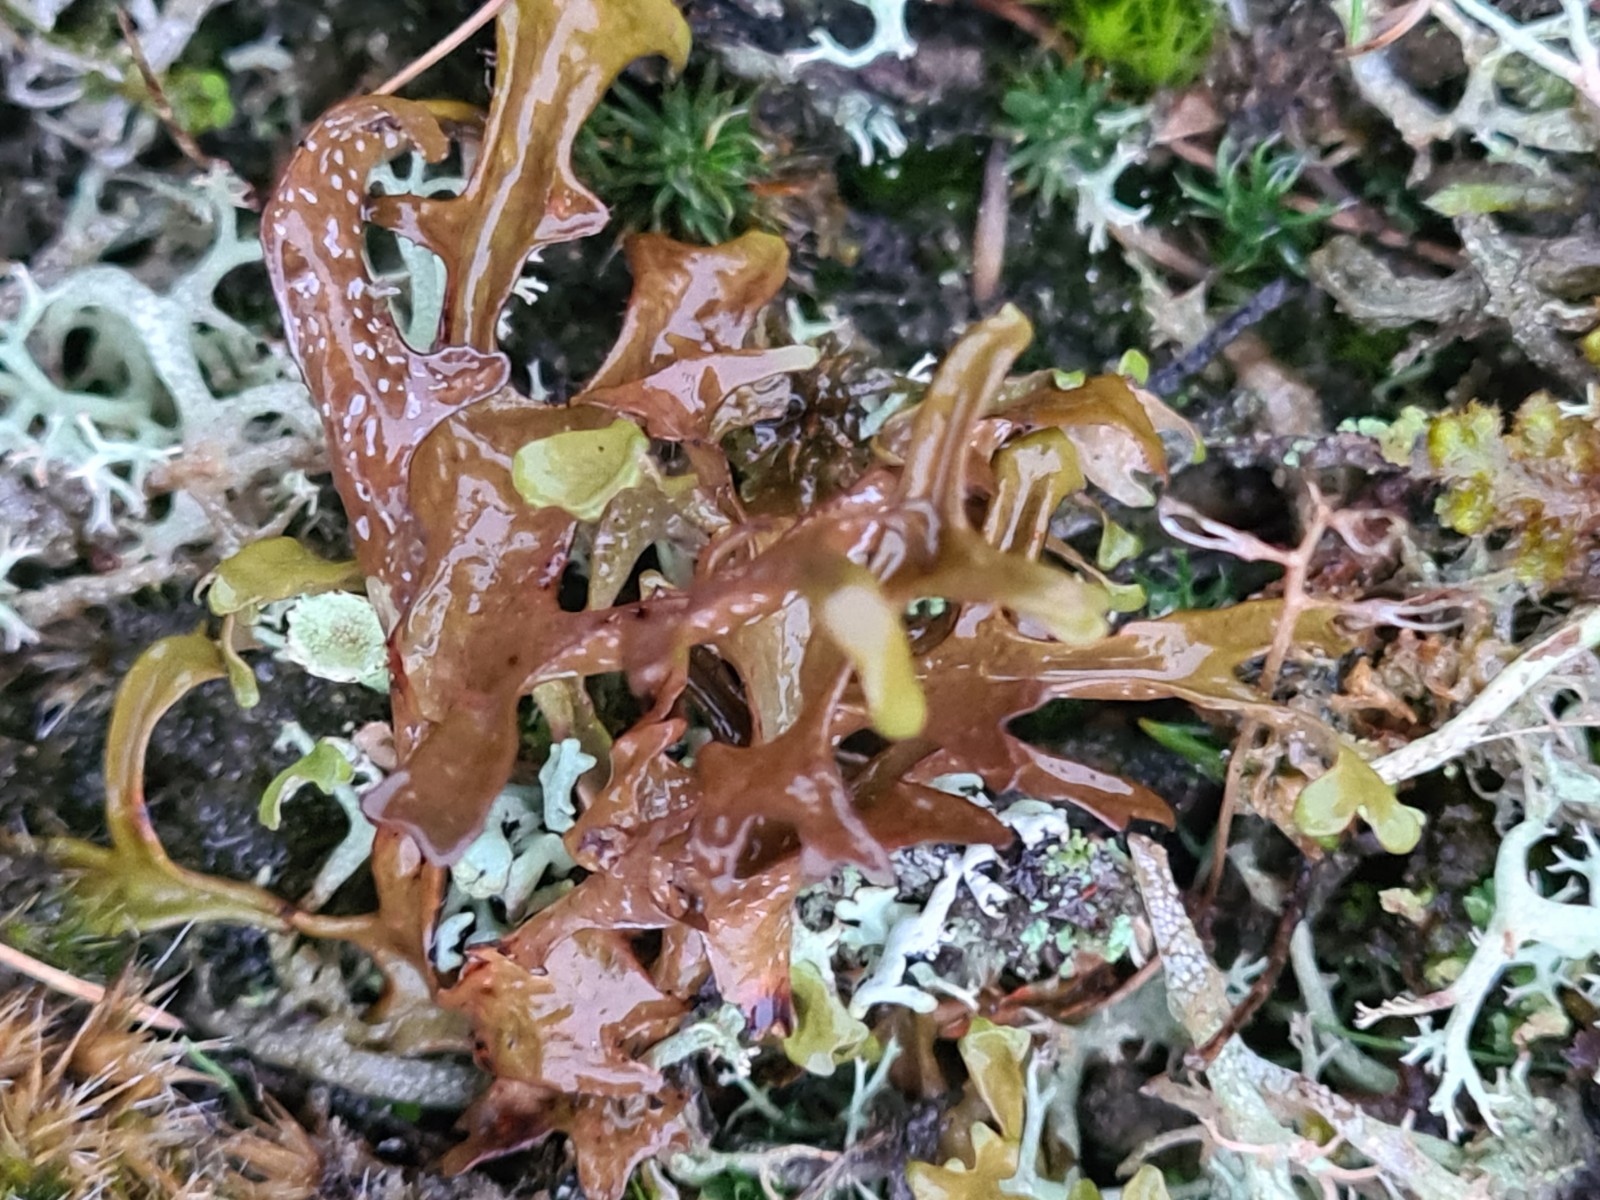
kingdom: Fungi
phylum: Ascomycota
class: Lecanoromycetes
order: Lecanorales
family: Parmeliaceae
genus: Cetraria
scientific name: Cetraria islandica
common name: islandsk kruslav
